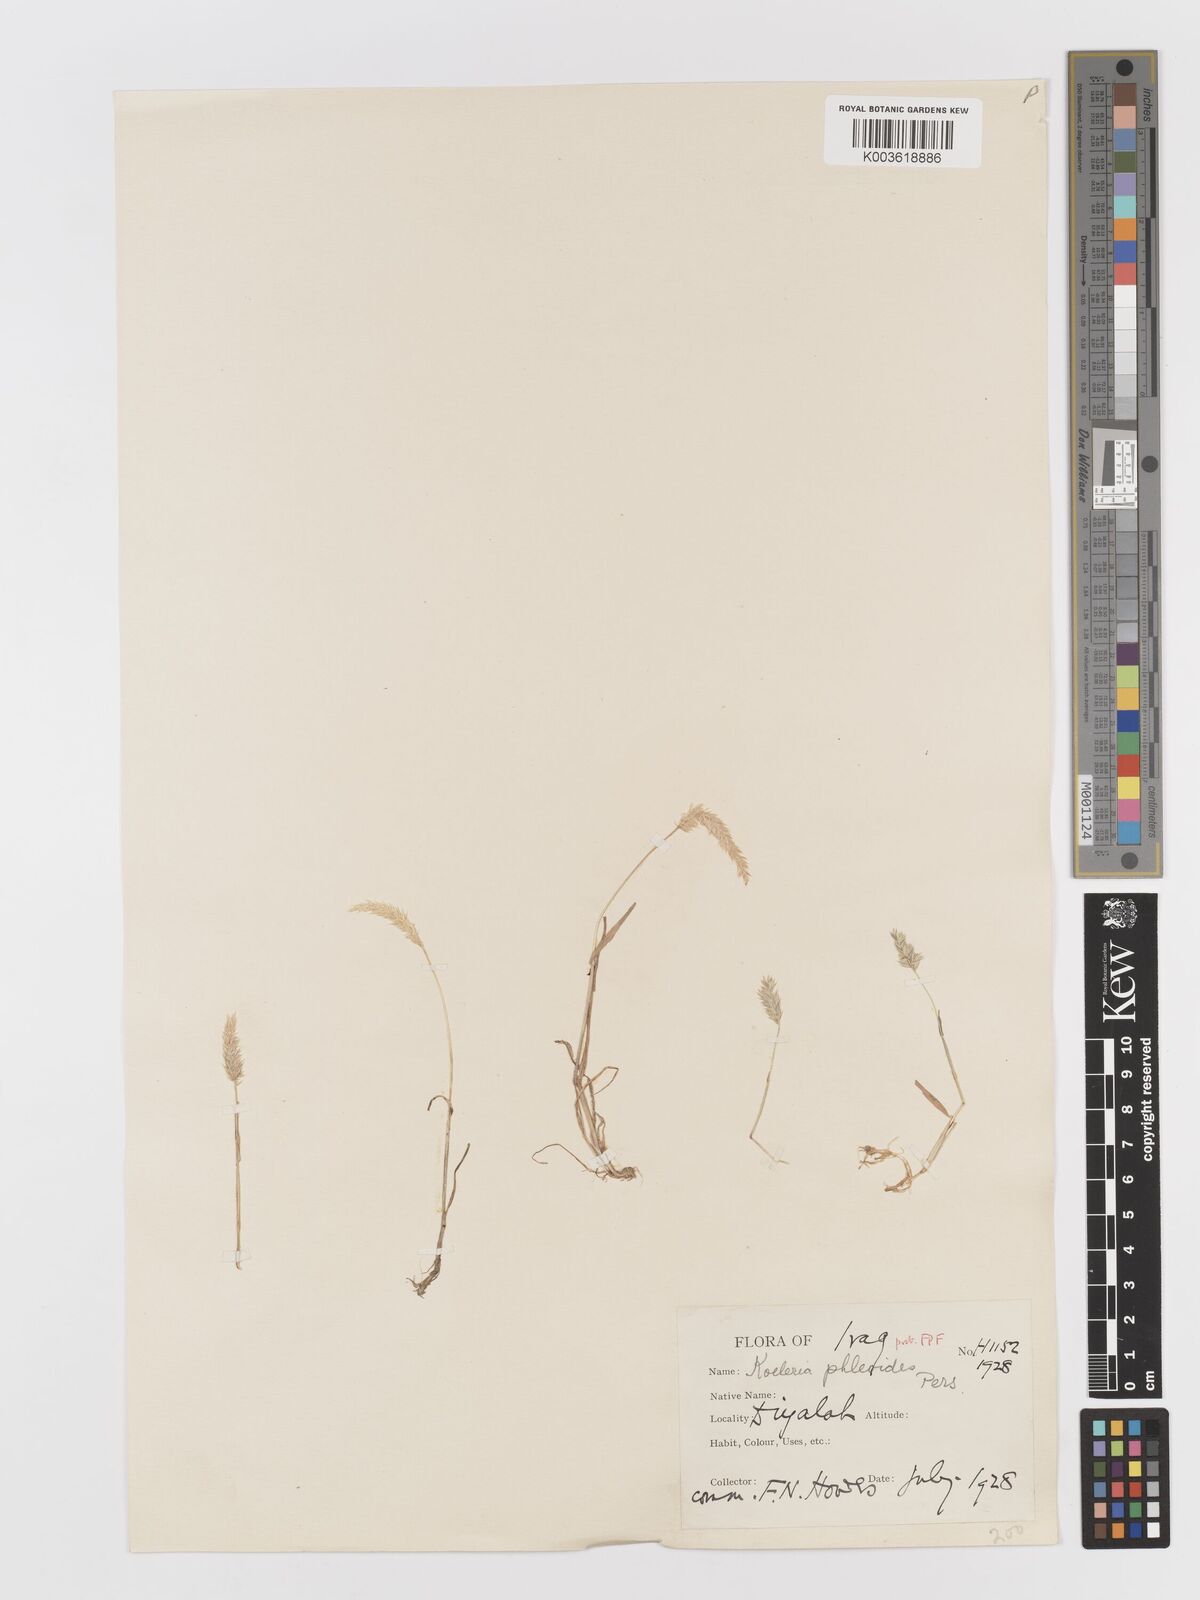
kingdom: Plantae
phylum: Tracheophyta
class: Liliopsida
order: Poales
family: Poaceae
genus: Rostraria
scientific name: Rostraria cristata
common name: Mediterranean hair-grass
